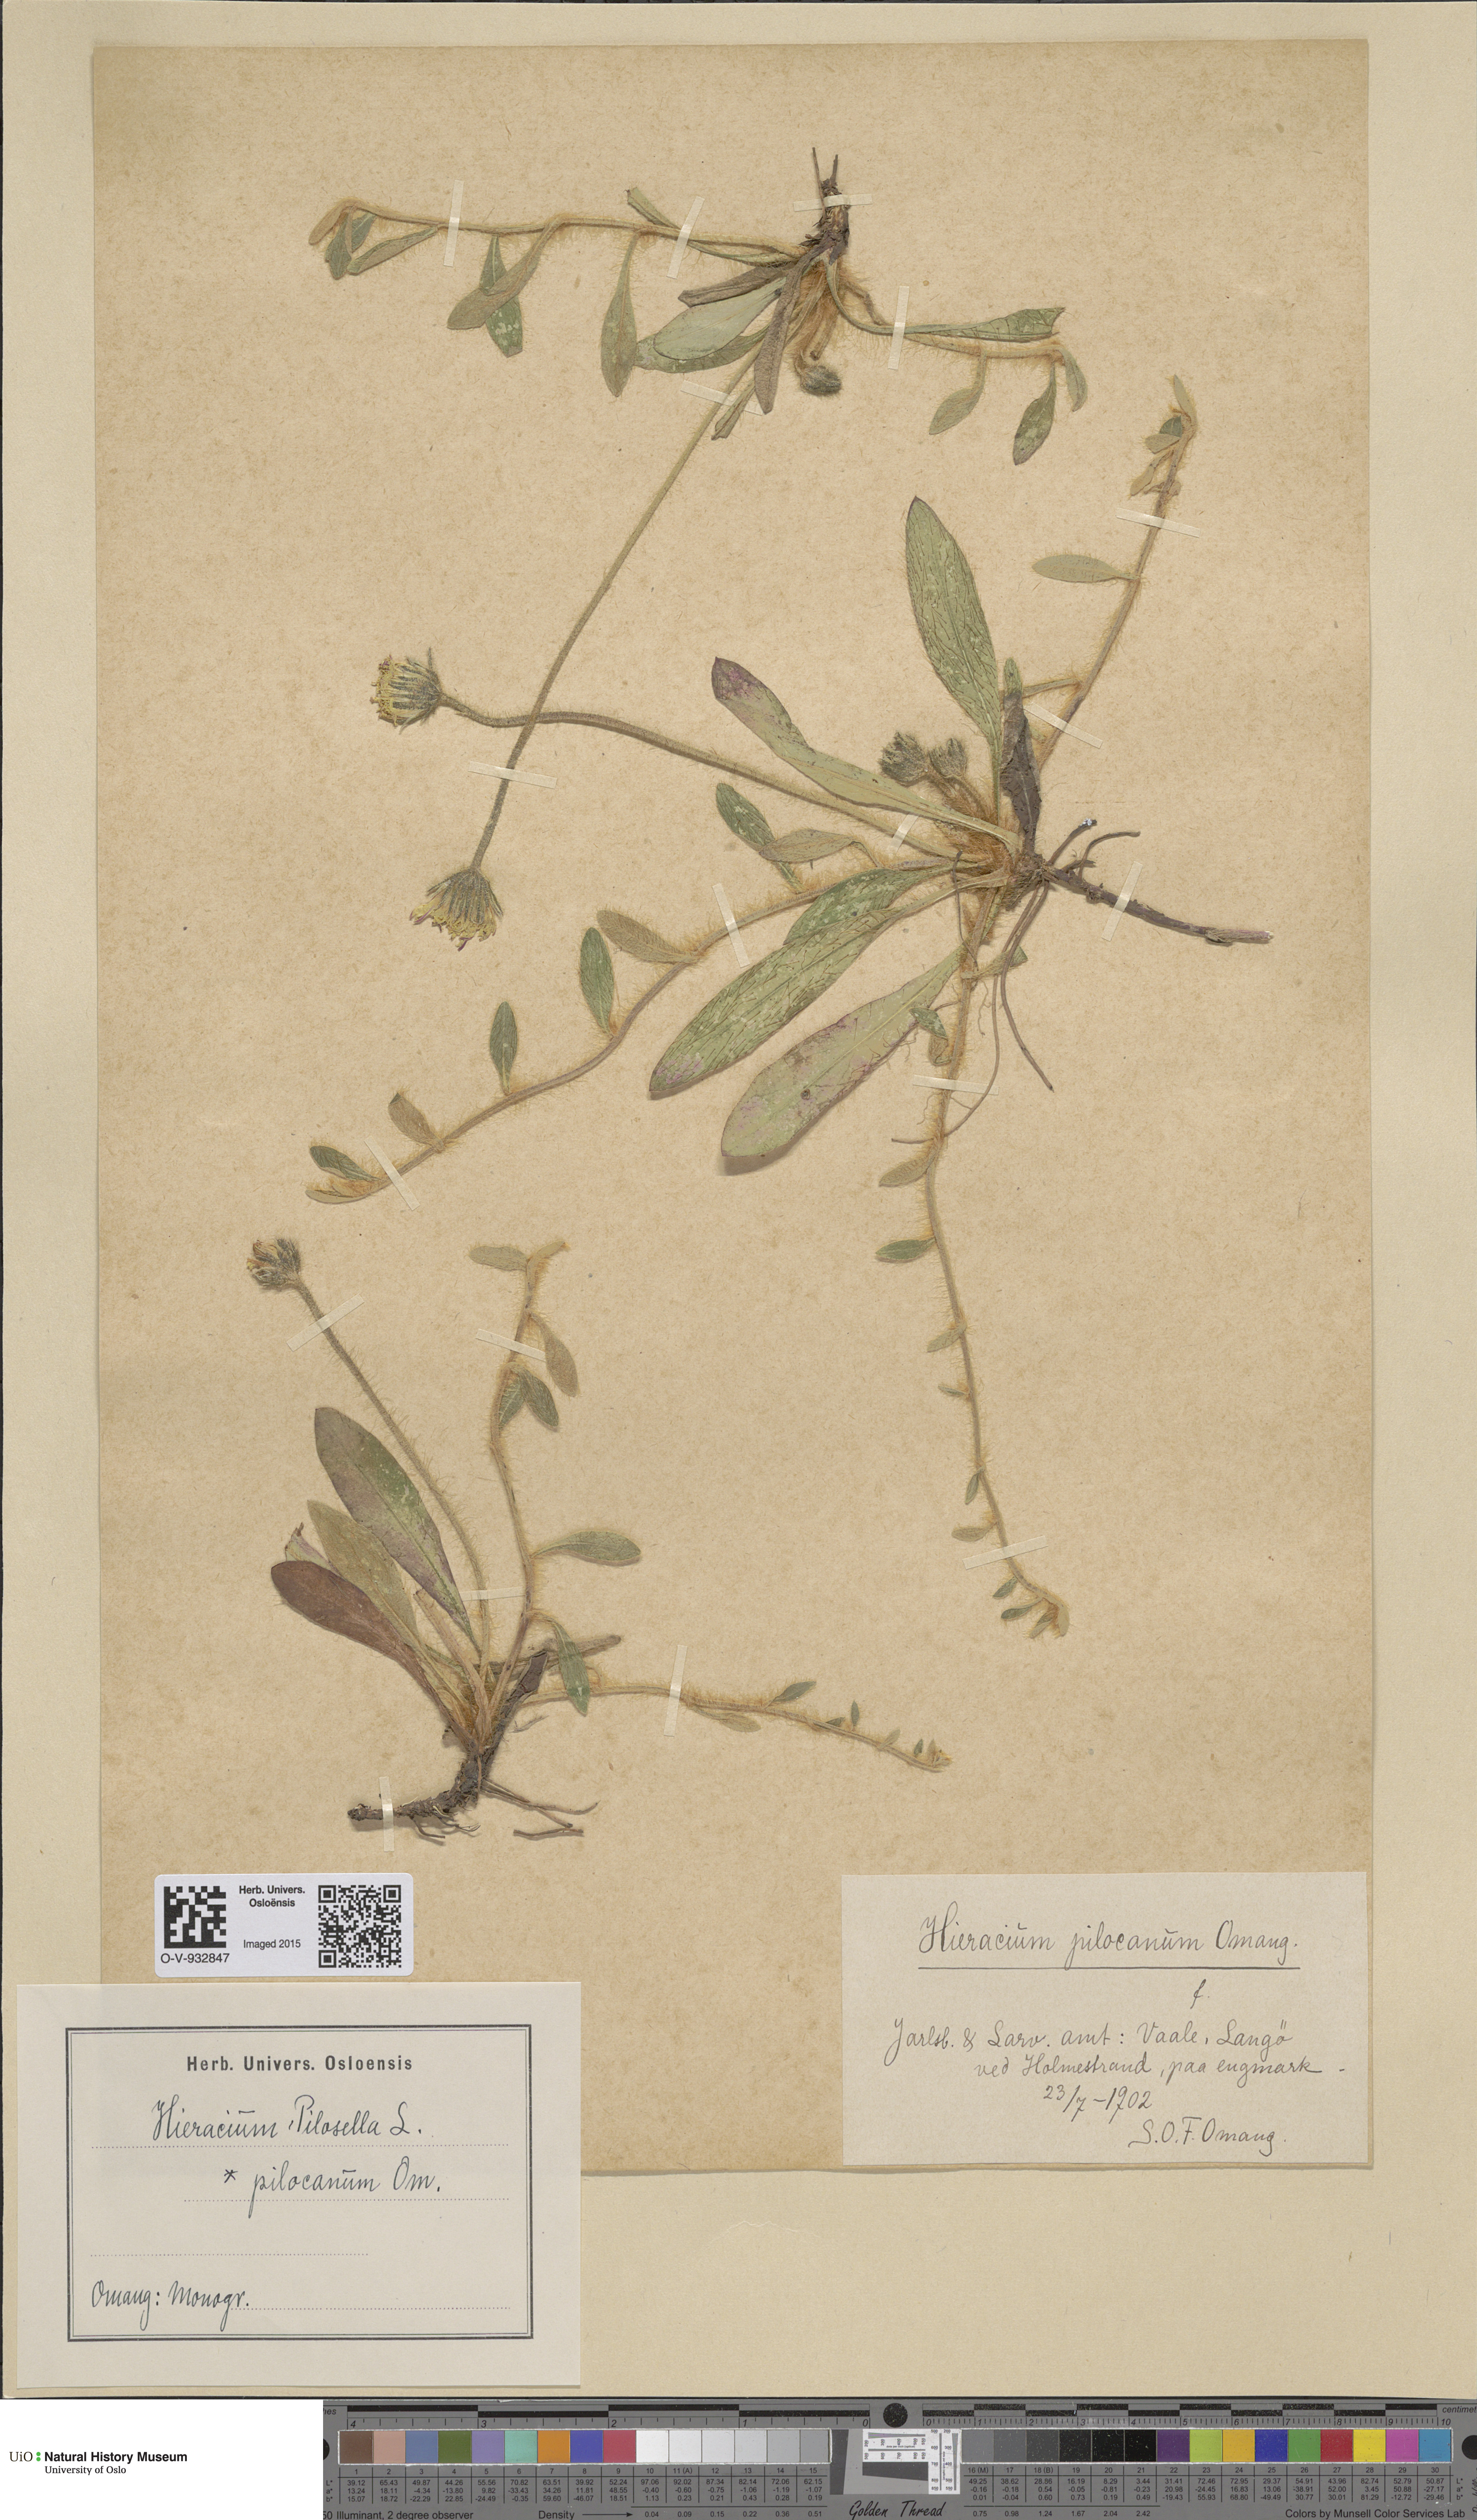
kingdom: Plantae
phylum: Tracheophyta
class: Magnoliopsida
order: Asterales
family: Asteraceae
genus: Pilosella
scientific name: Pilosella officinarum
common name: Mouse-ear hawkweed
